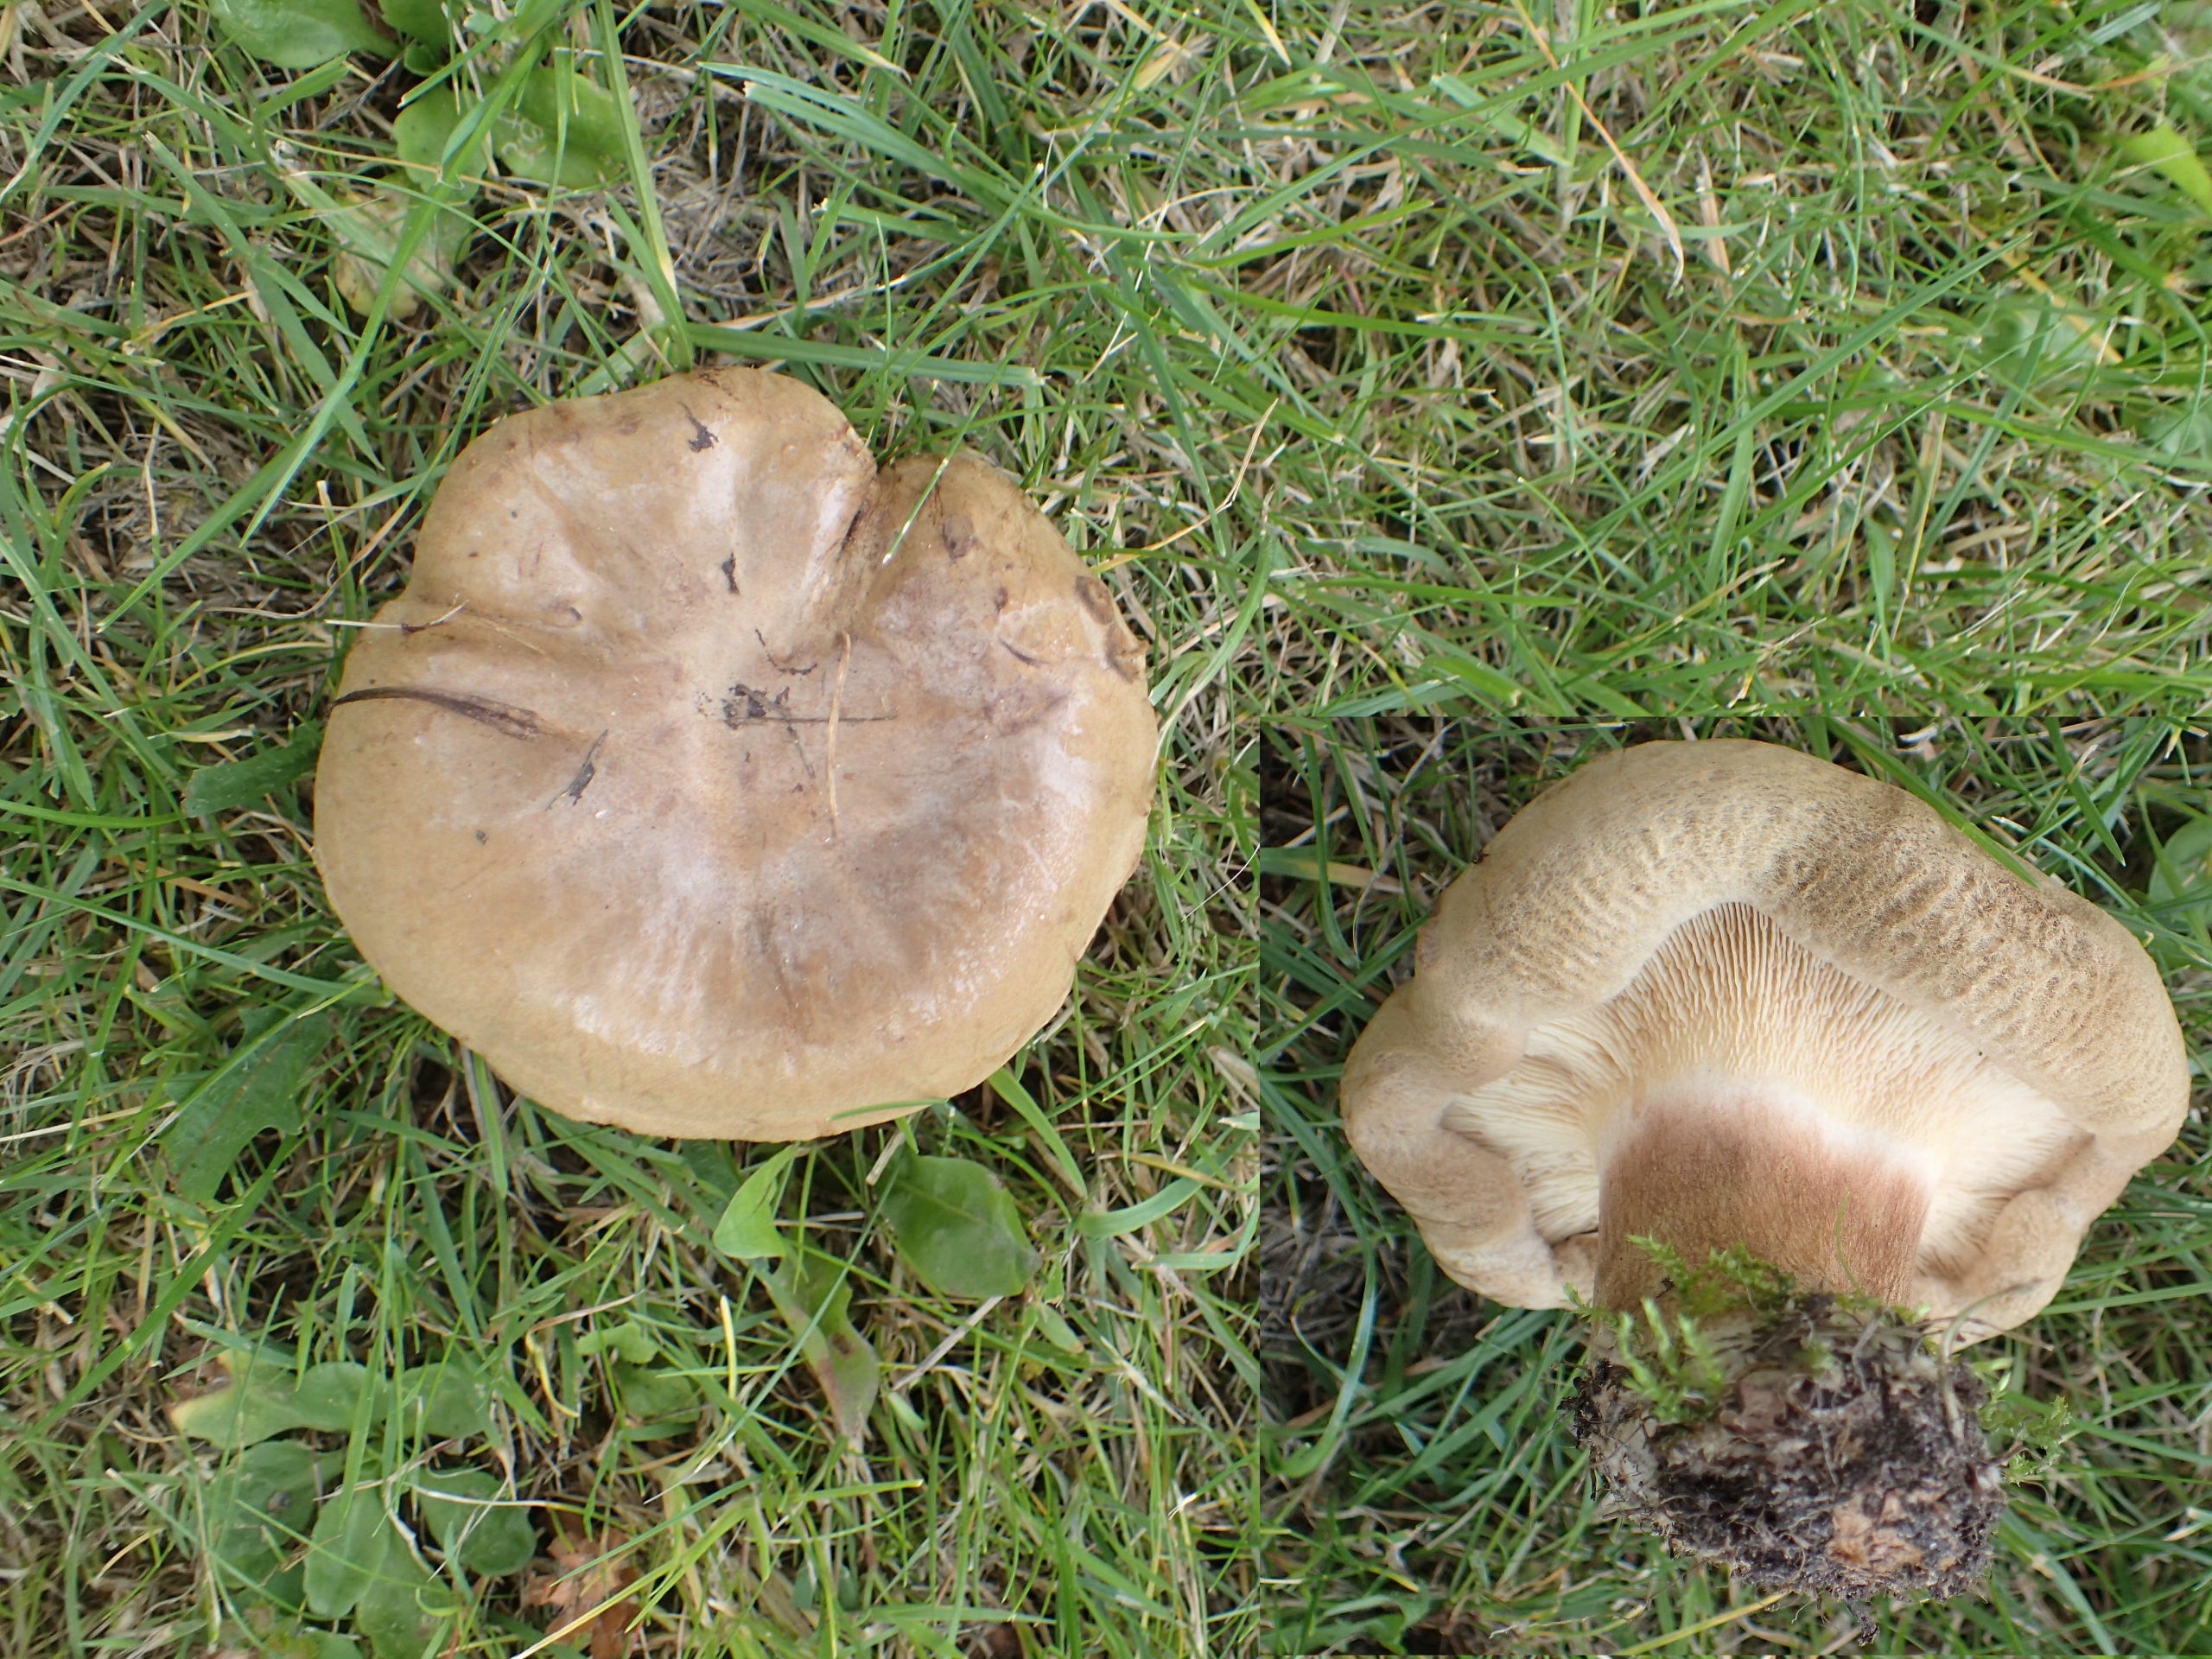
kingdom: Fungi
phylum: Basidiomycota
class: Agaricomycetes
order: Boletales
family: Paxillaceae
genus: Paxillus
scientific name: Paxillus
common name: Netbladhat
